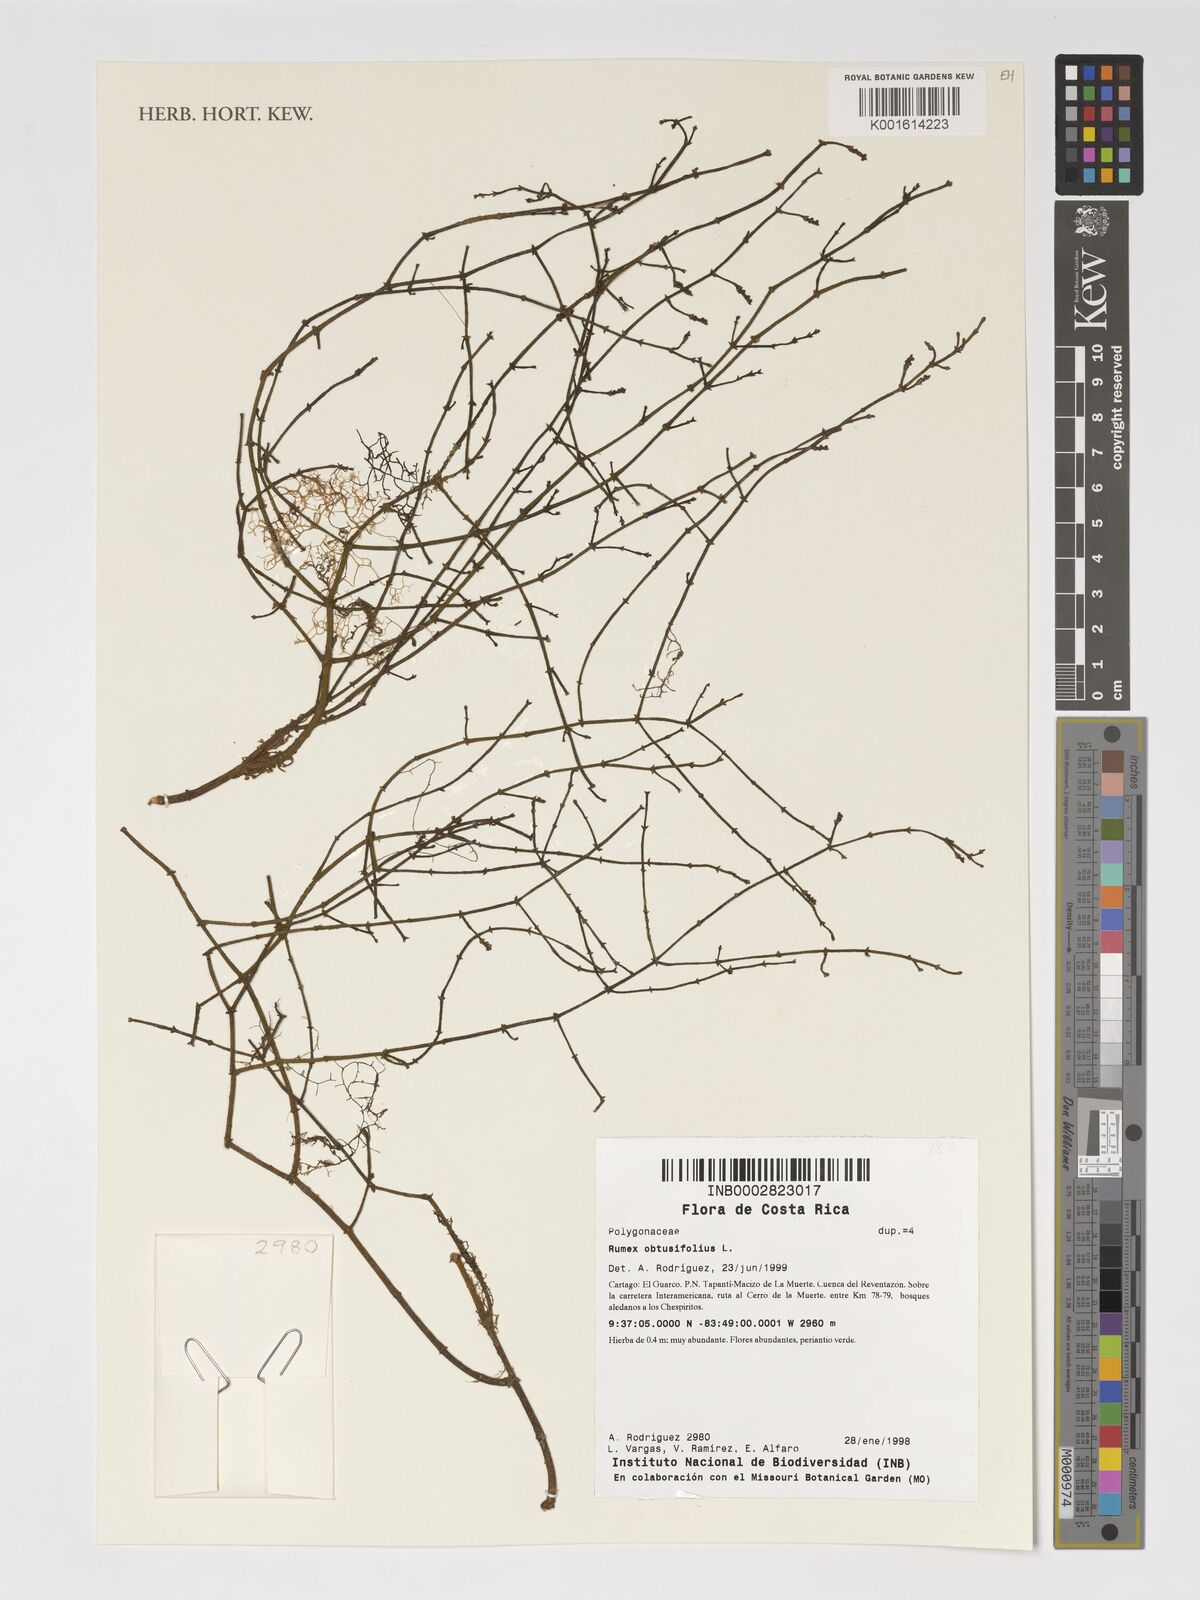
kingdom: Plantae
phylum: Tracheophyta
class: Magnoliopsida
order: Caryophyllales
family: Polygonaceae
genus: Rumex
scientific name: Rumex obtusifolius
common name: Bitter dock
